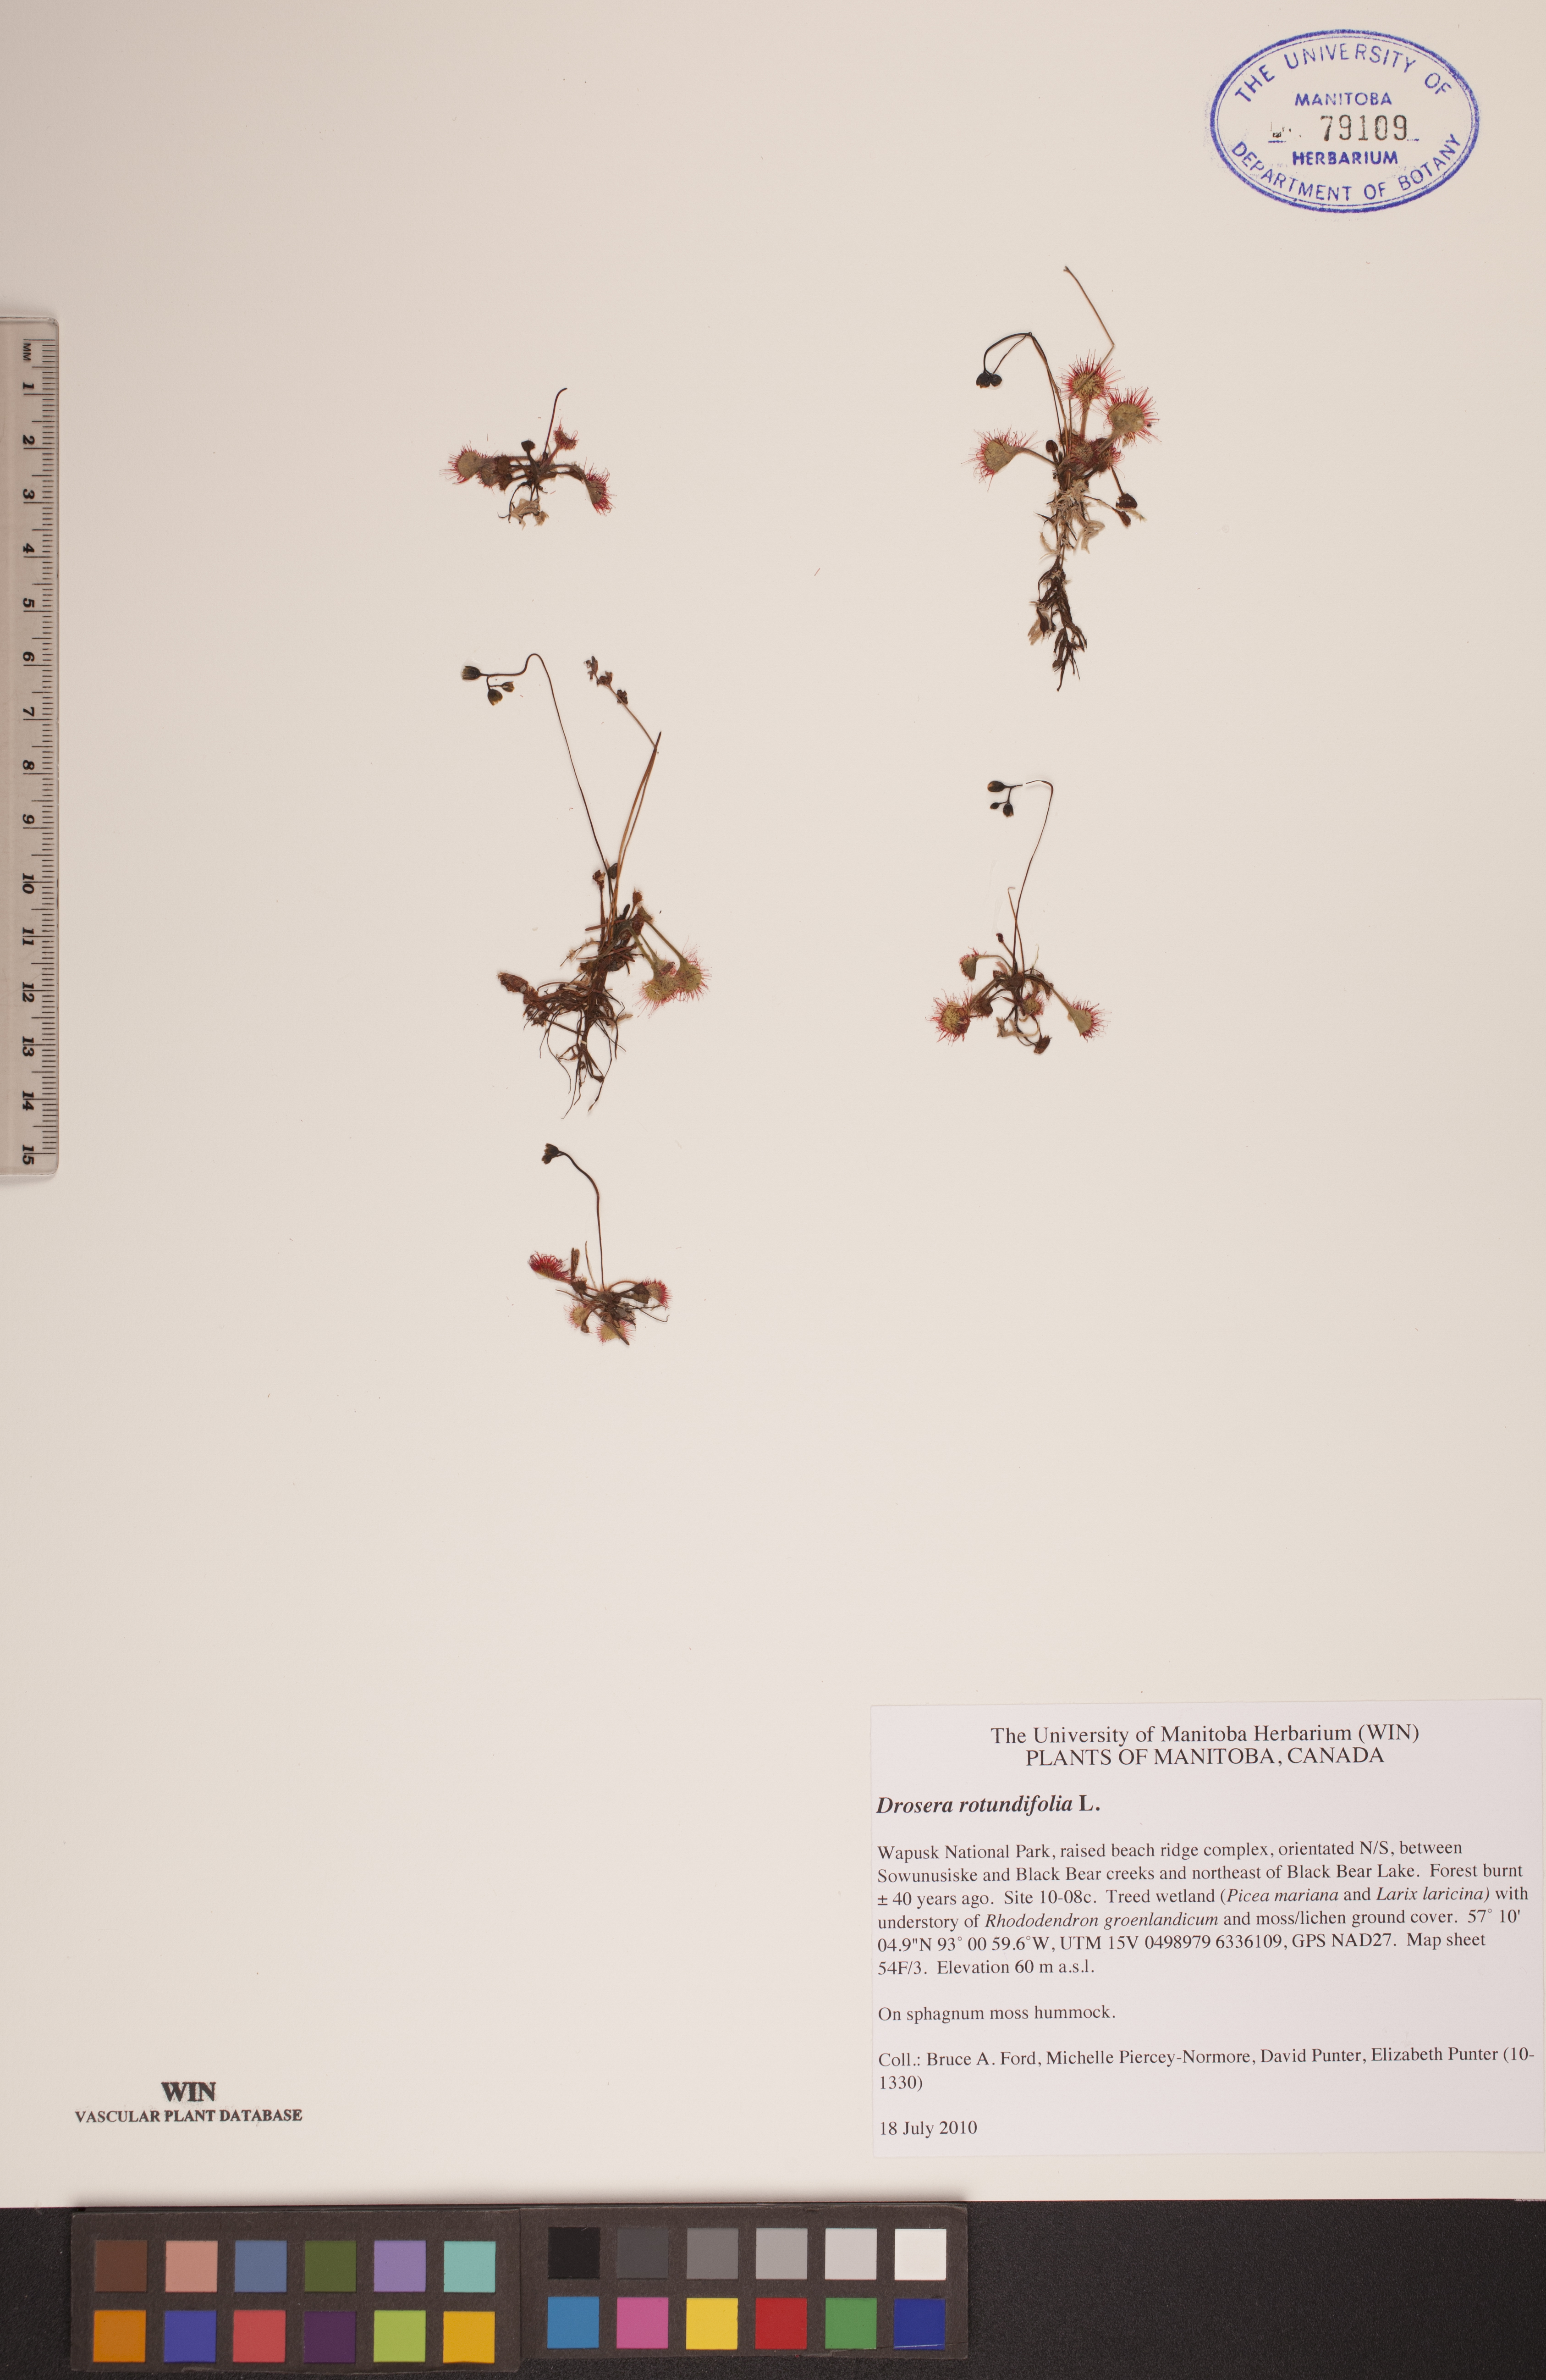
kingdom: Plantae
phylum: Tracheophyta
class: Magnoliopsida
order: Caryophyllales
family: Droseraceae
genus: Drosera
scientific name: Drosera rotundifolia
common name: Round-leaved sundew
